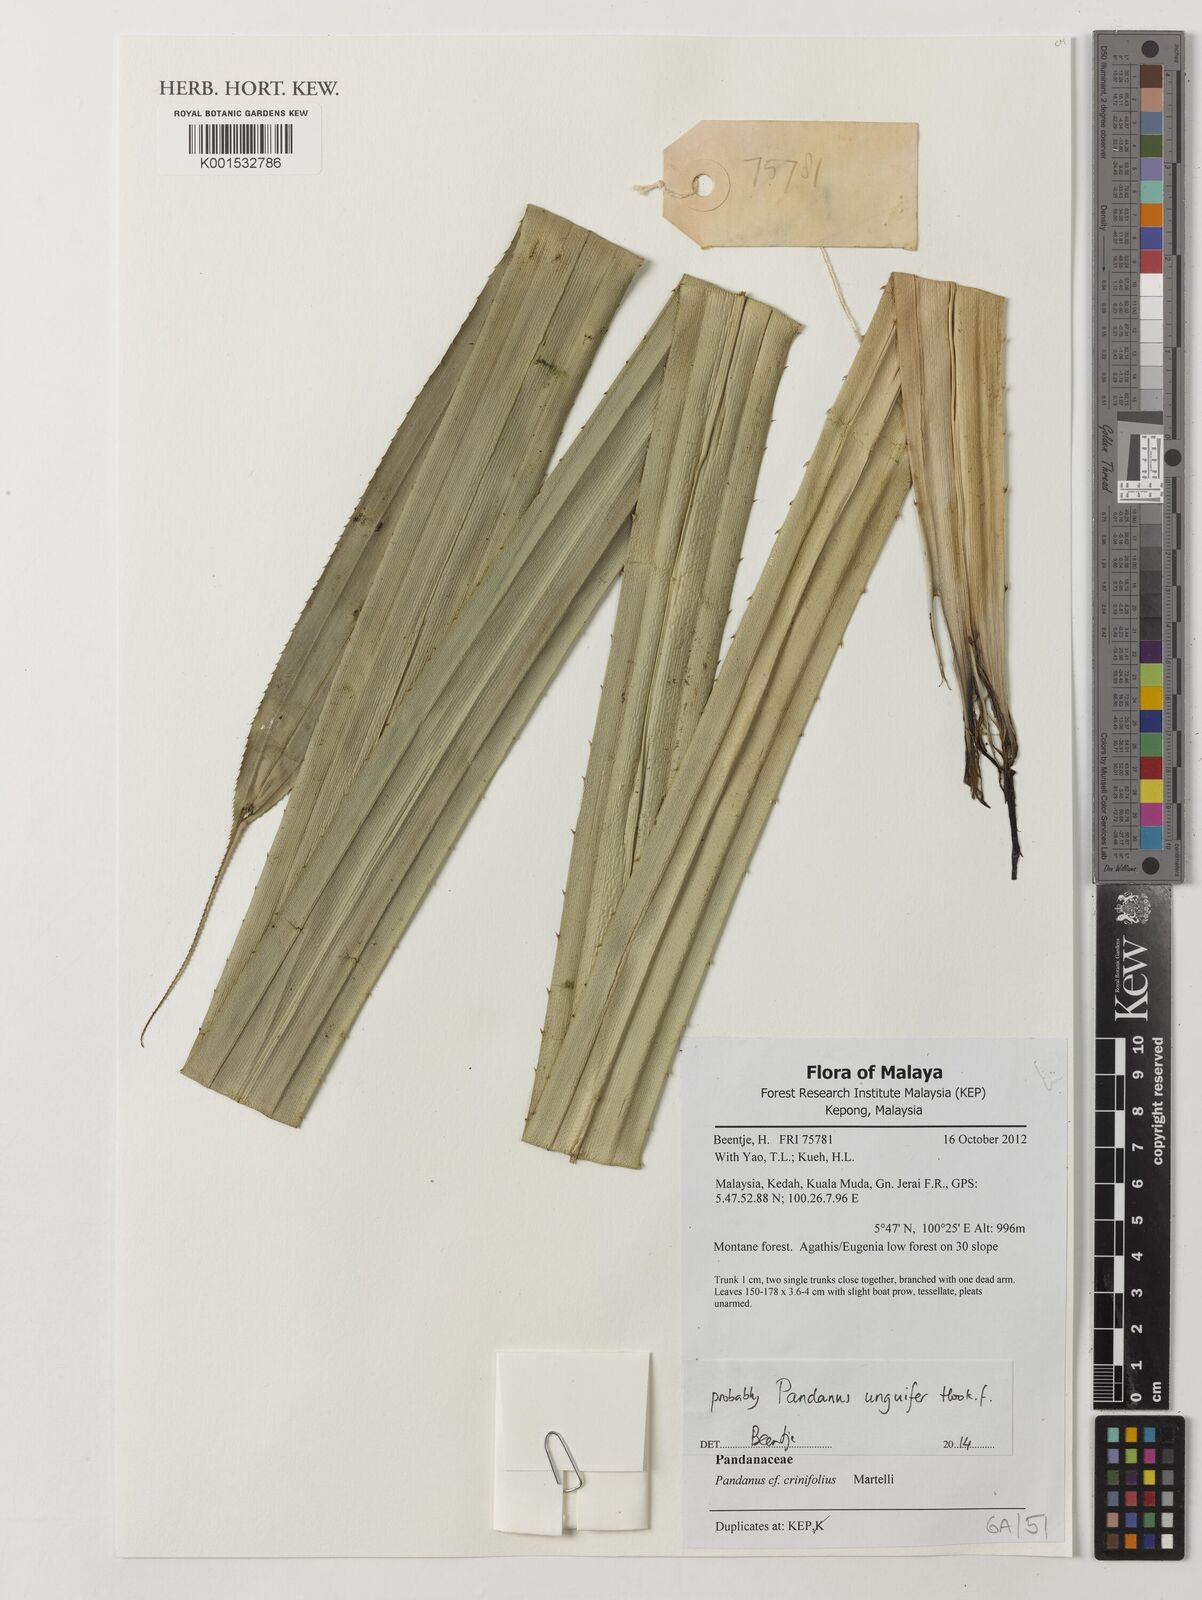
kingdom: Plantae
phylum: Tracheophyta
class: Liliopsida
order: Pandanales
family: Pandanaceae
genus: Pandanus
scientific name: Pandanus crinifolius
